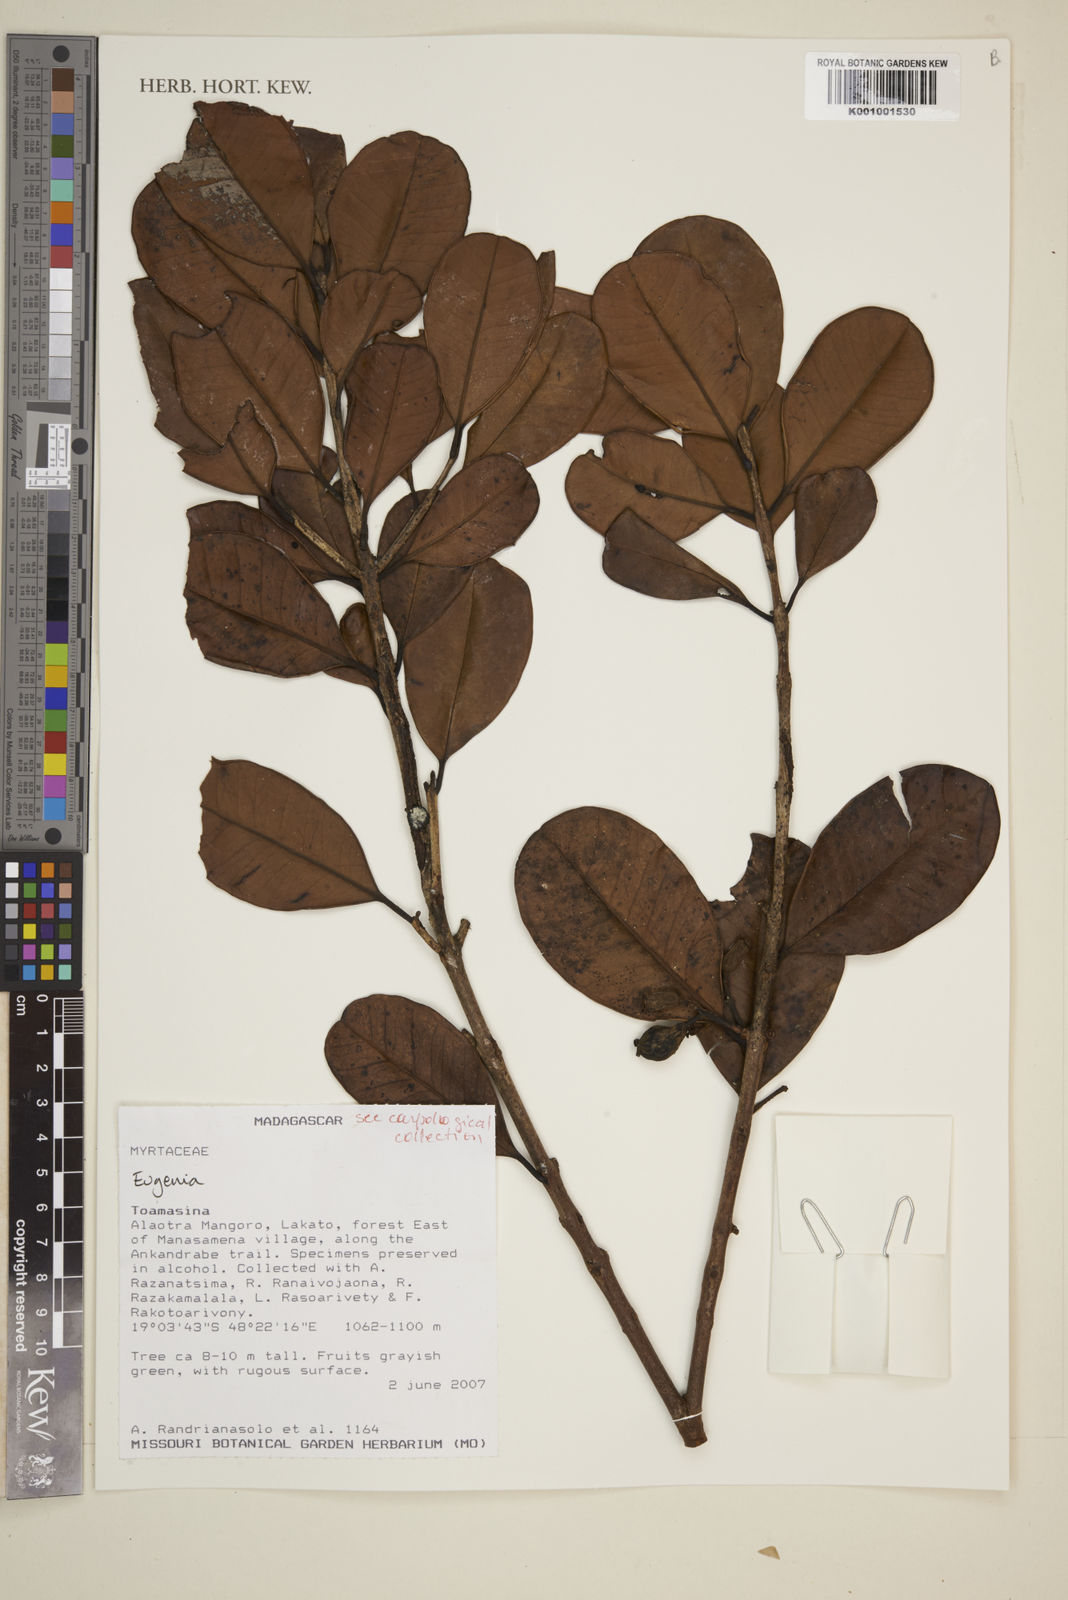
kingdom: Plantae
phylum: Tracheophyta
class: Magnoliopsida
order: Myrtales
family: Myrtaceae
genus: Eugenia
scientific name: Eugenia
